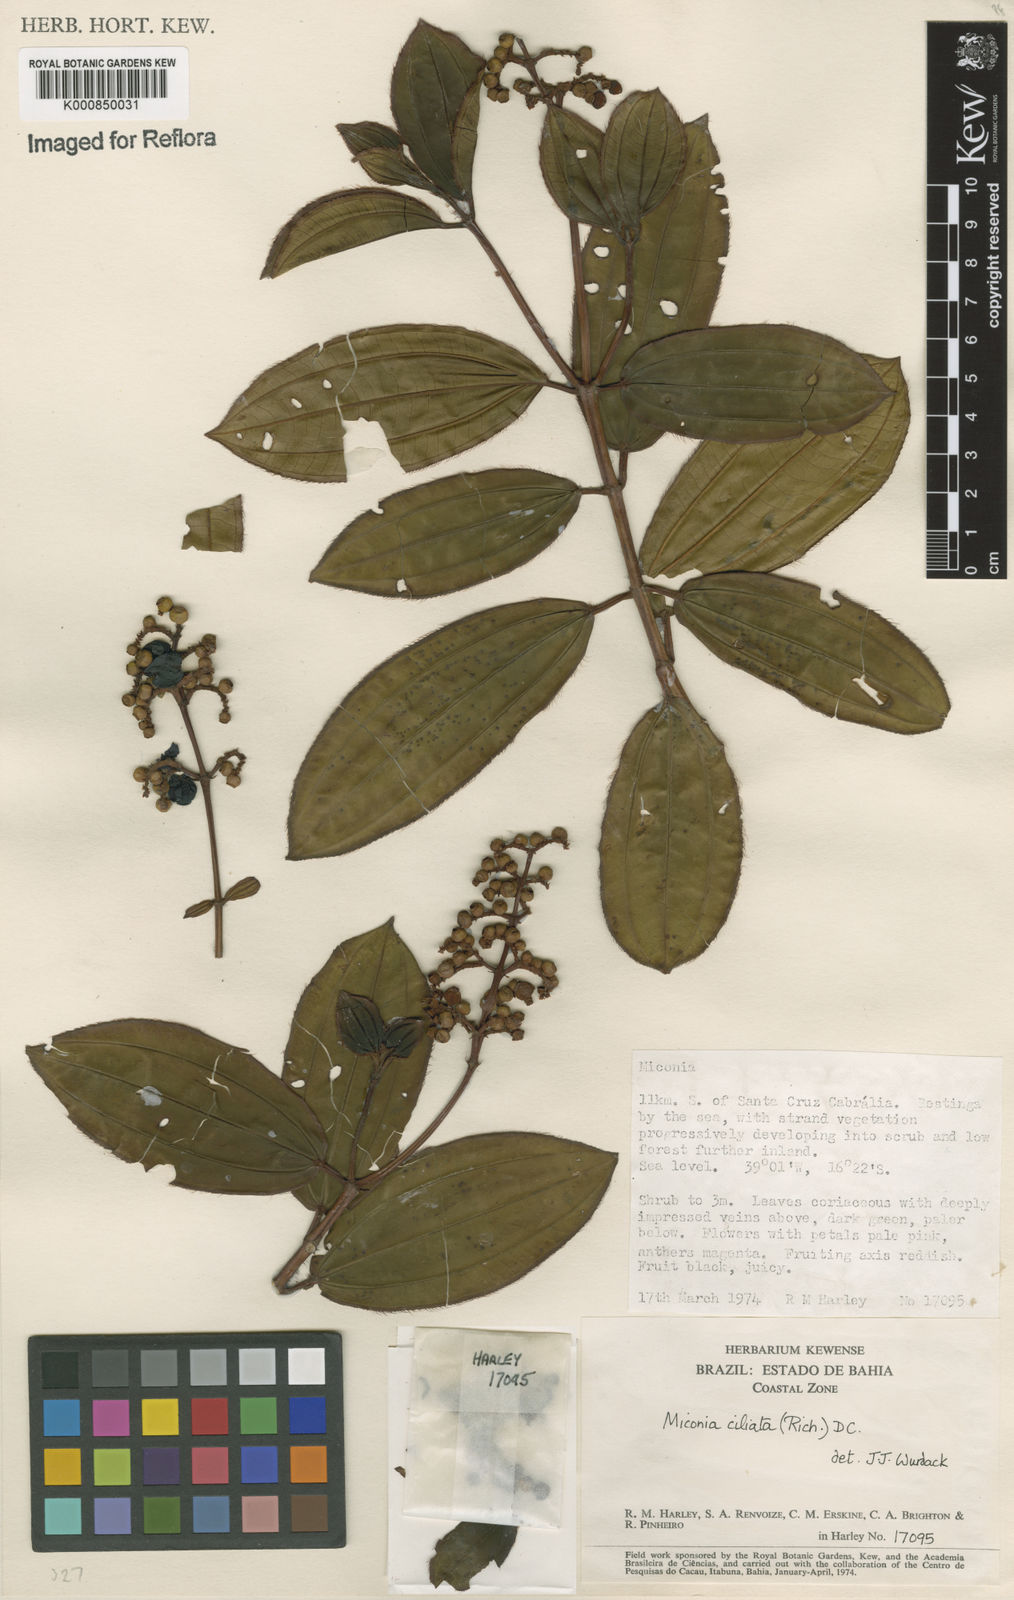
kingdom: Plantae
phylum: Tracheophyta
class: Magnoliopsida
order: Myrtales
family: Melastomataceae
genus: Miconia
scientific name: Miconia ciliata
